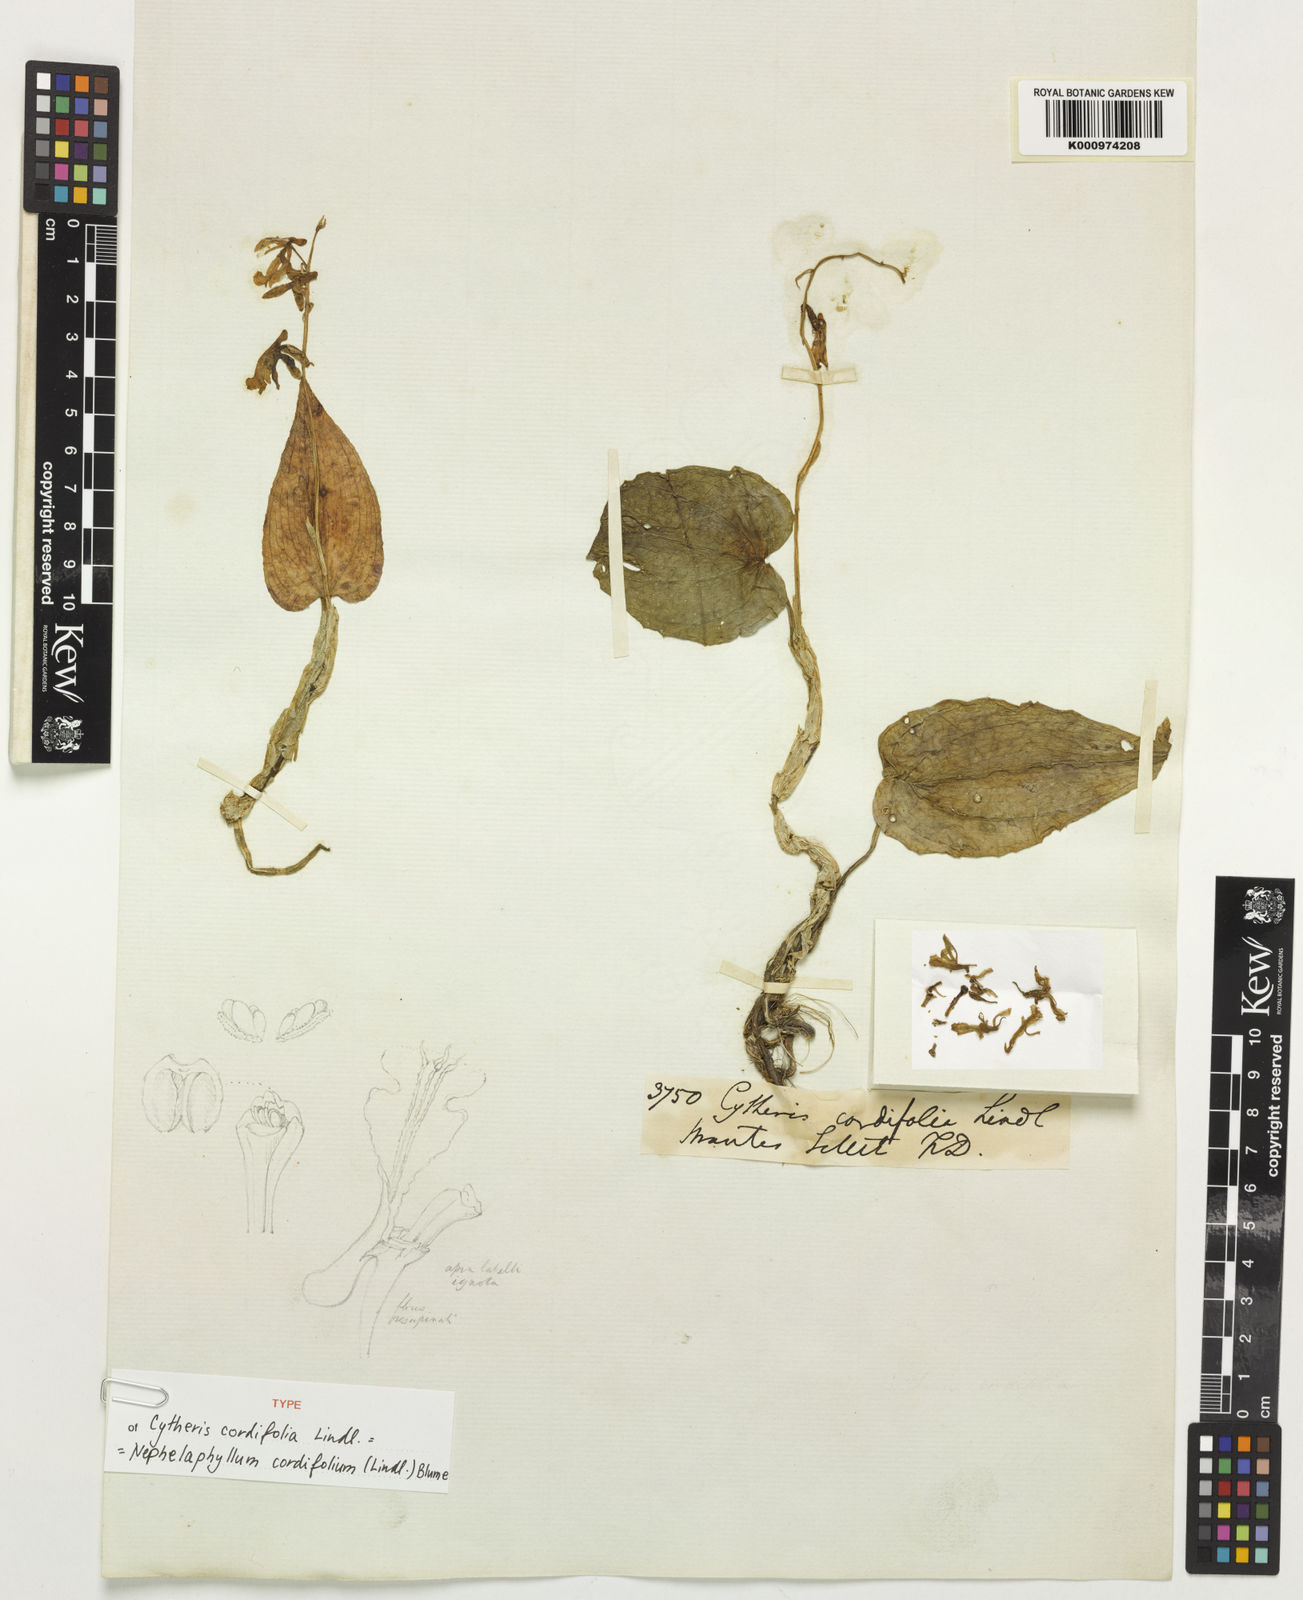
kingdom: Plantae
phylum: Tracheophyta
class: Liliopsida
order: Asparagales
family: Orchidaceae
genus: Nephelaphyllum
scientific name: Nephelaphyllum cordifolium
